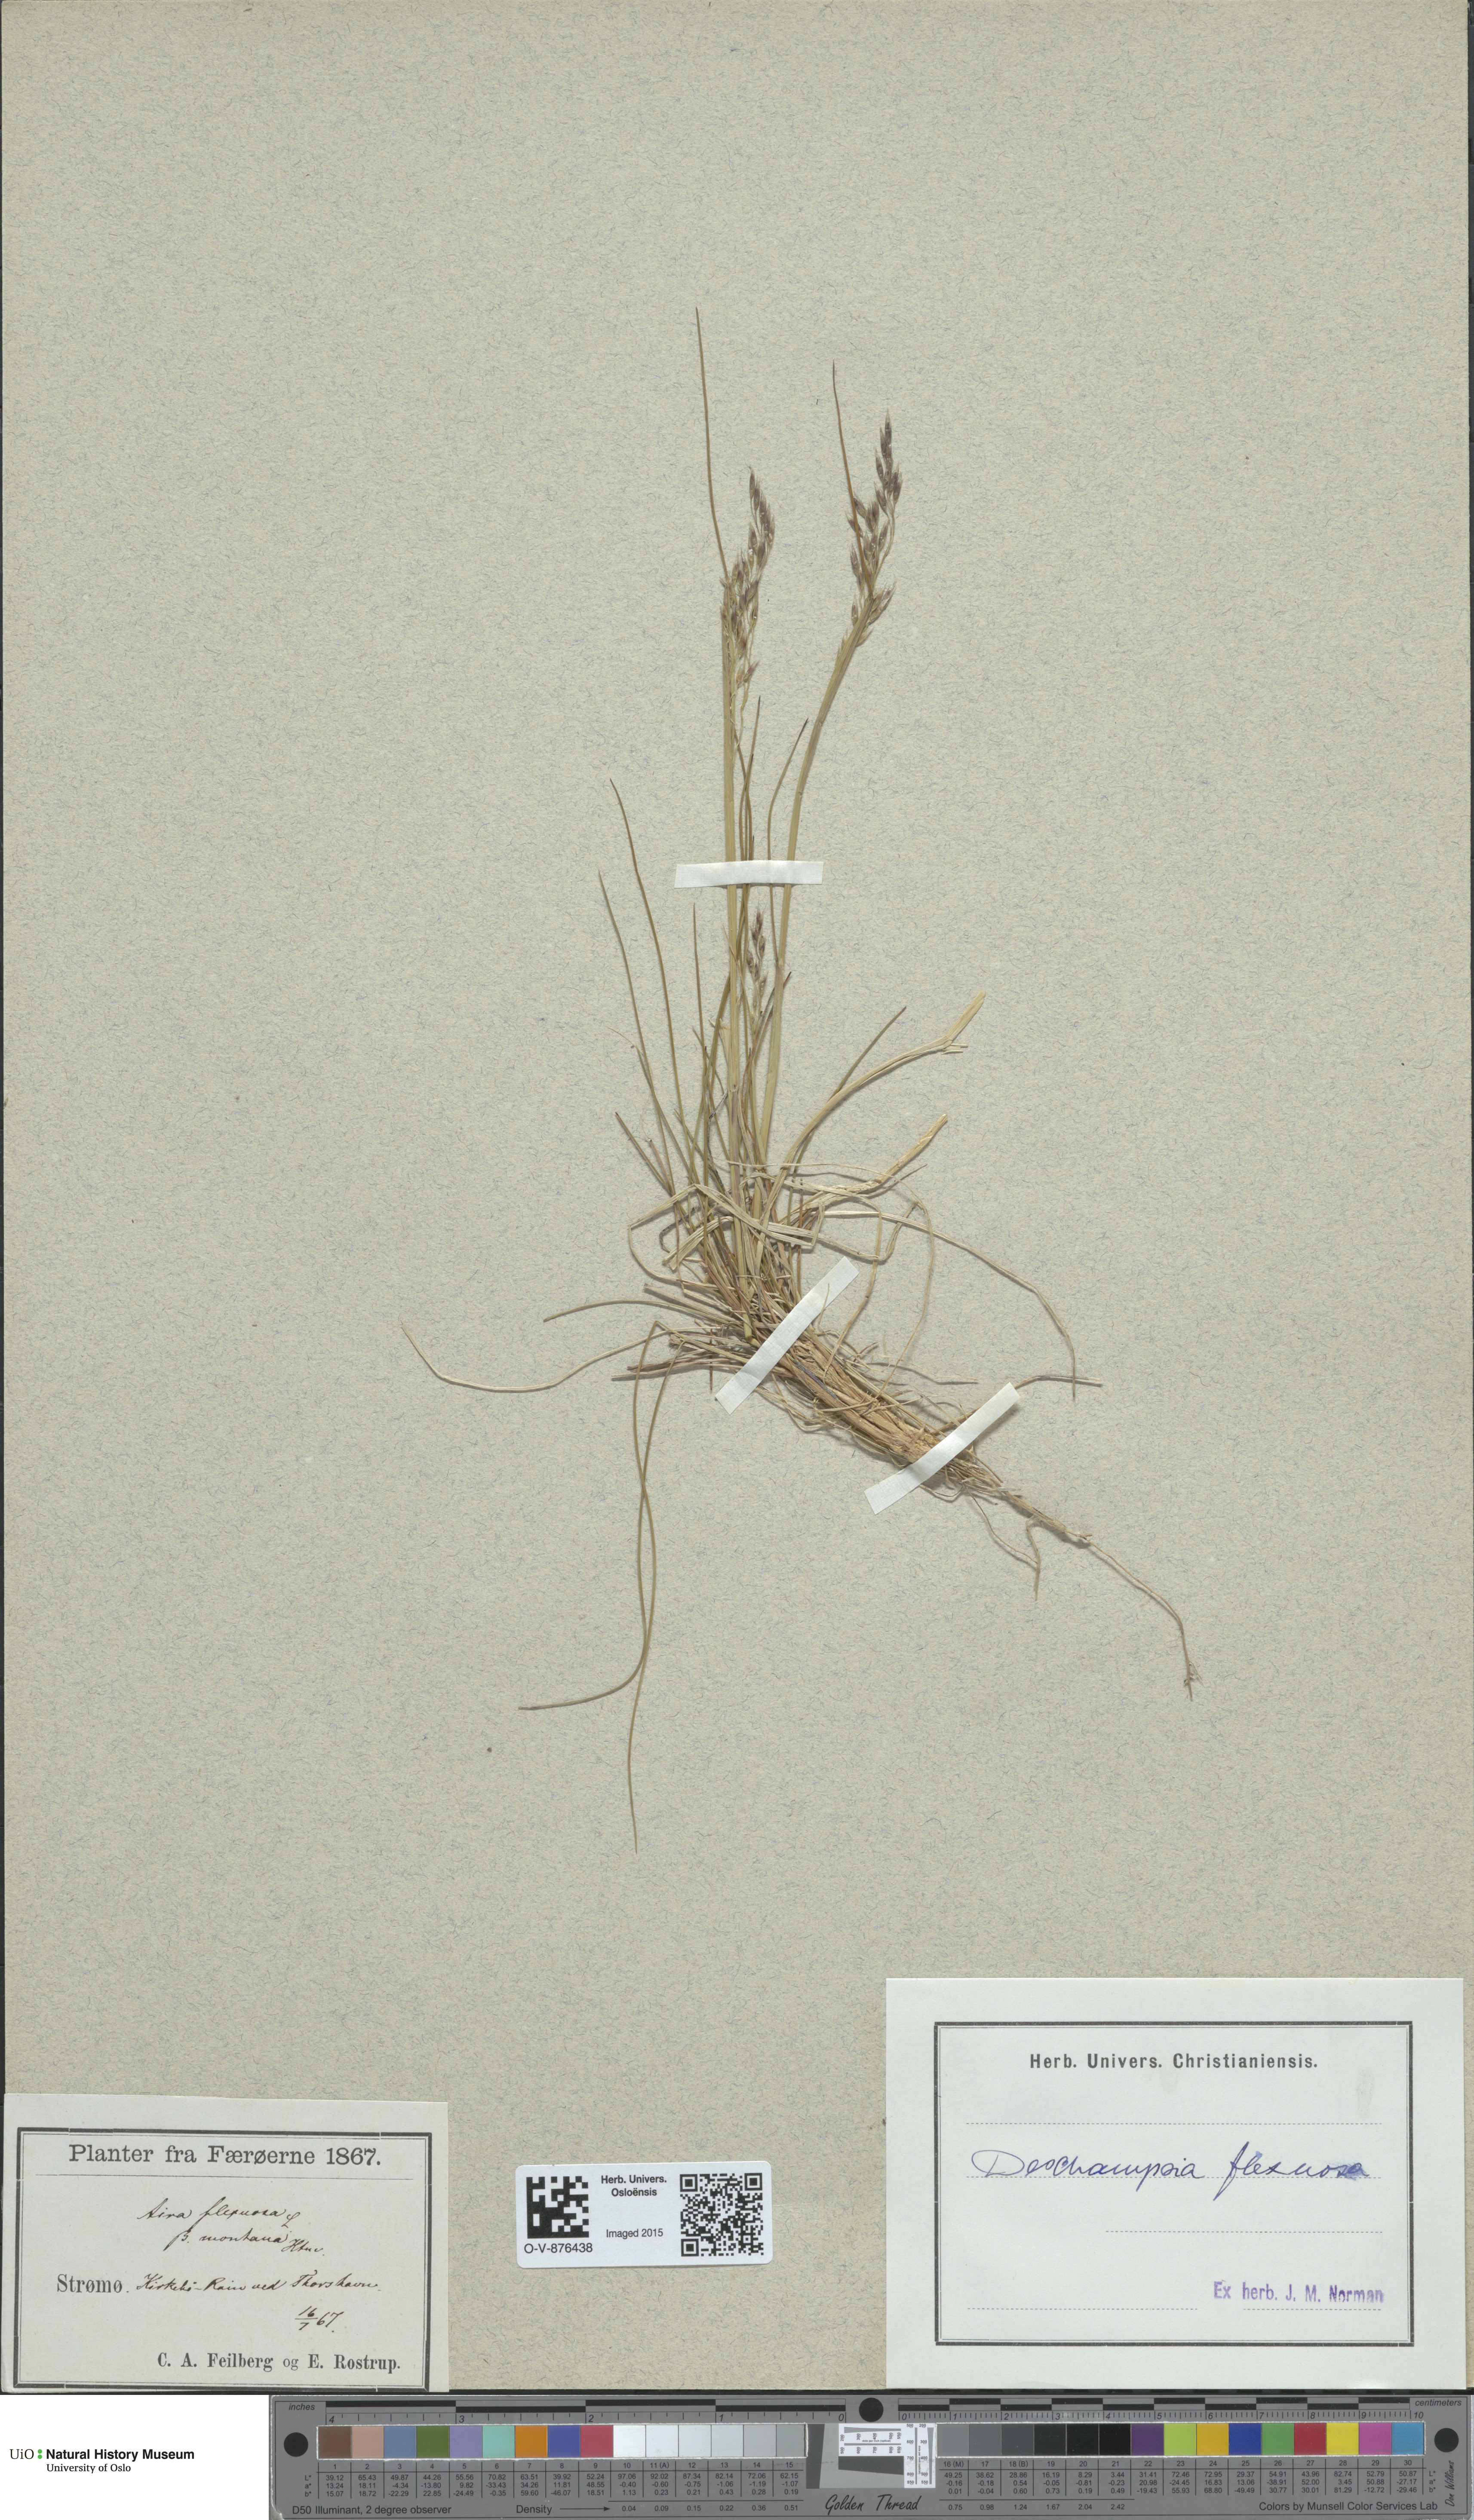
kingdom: Plantae
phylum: Tracheophyta
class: Liliopsida
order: Poales
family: Poaceae
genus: Avenella
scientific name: Avenella flexuosa
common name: Wavy hairgrass
